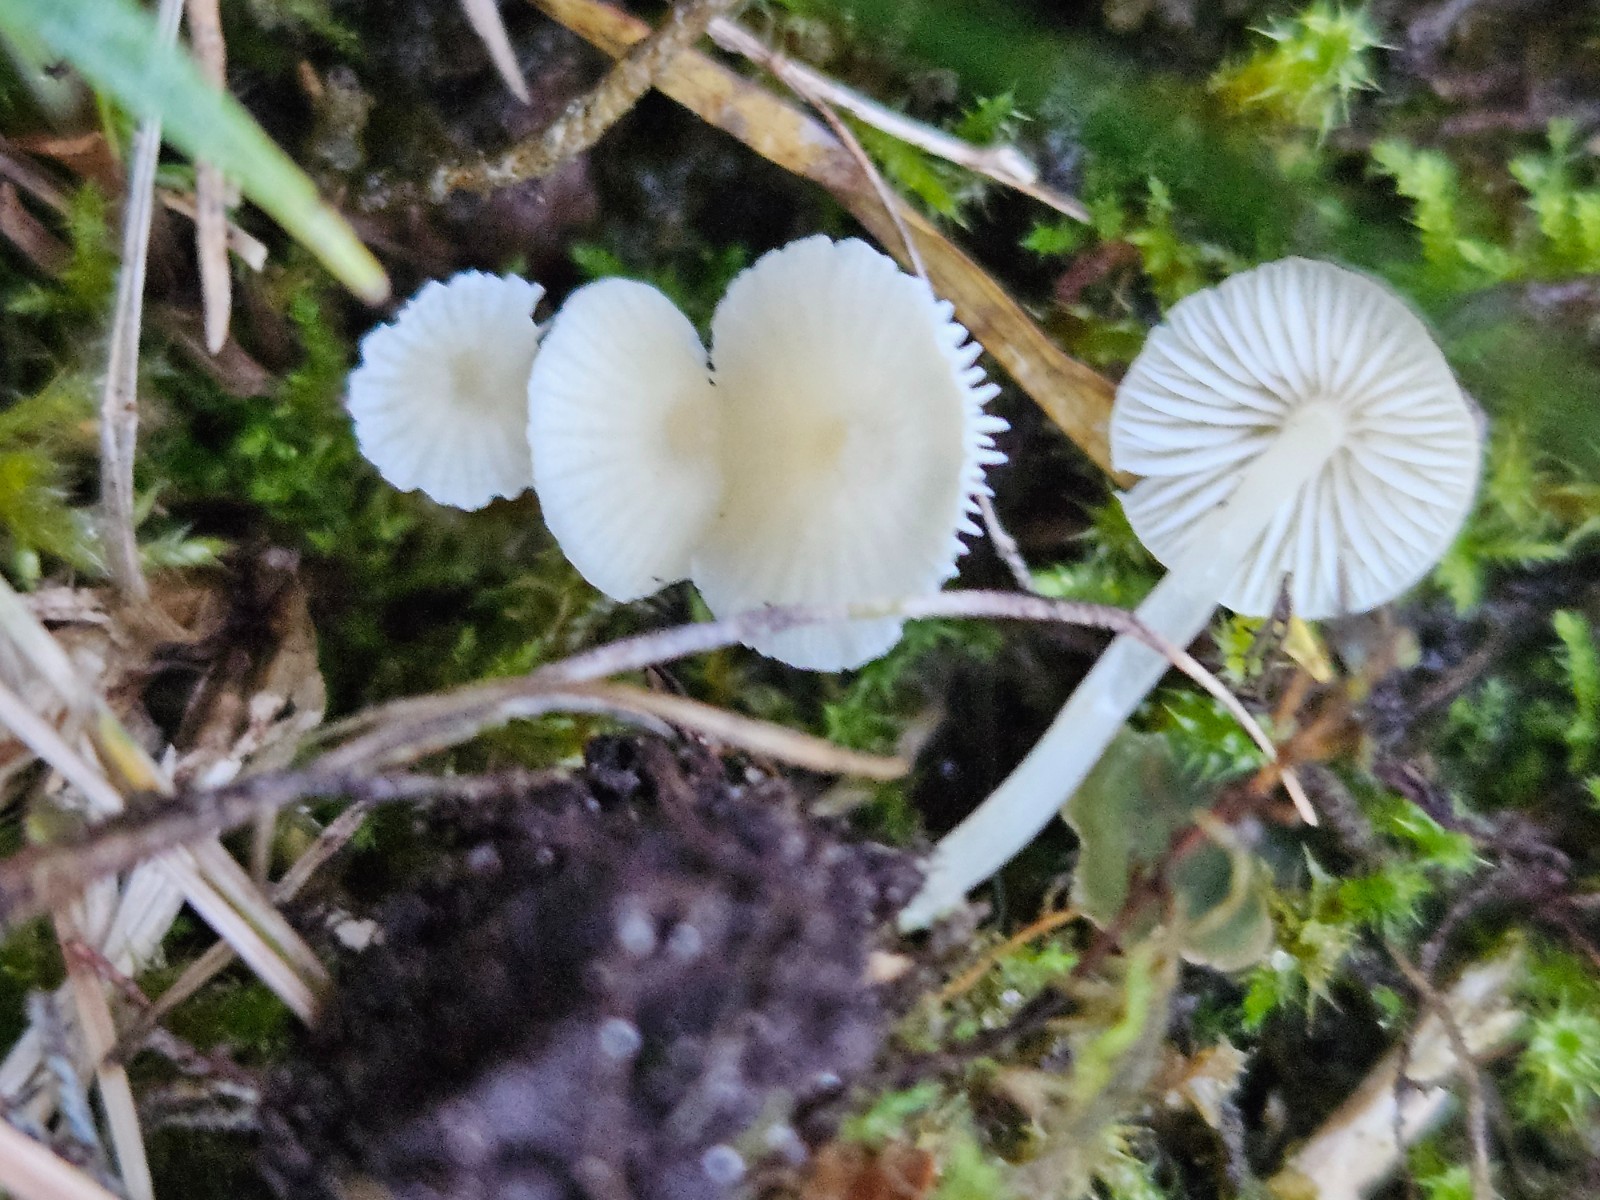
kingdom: Fungi
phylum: Basidiomycota
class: Agaricomycetes
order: Agaricales
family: Mycenaceae
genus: Atheniella
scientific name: Atheniella flavoalba
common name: gulhvid huesvamp
